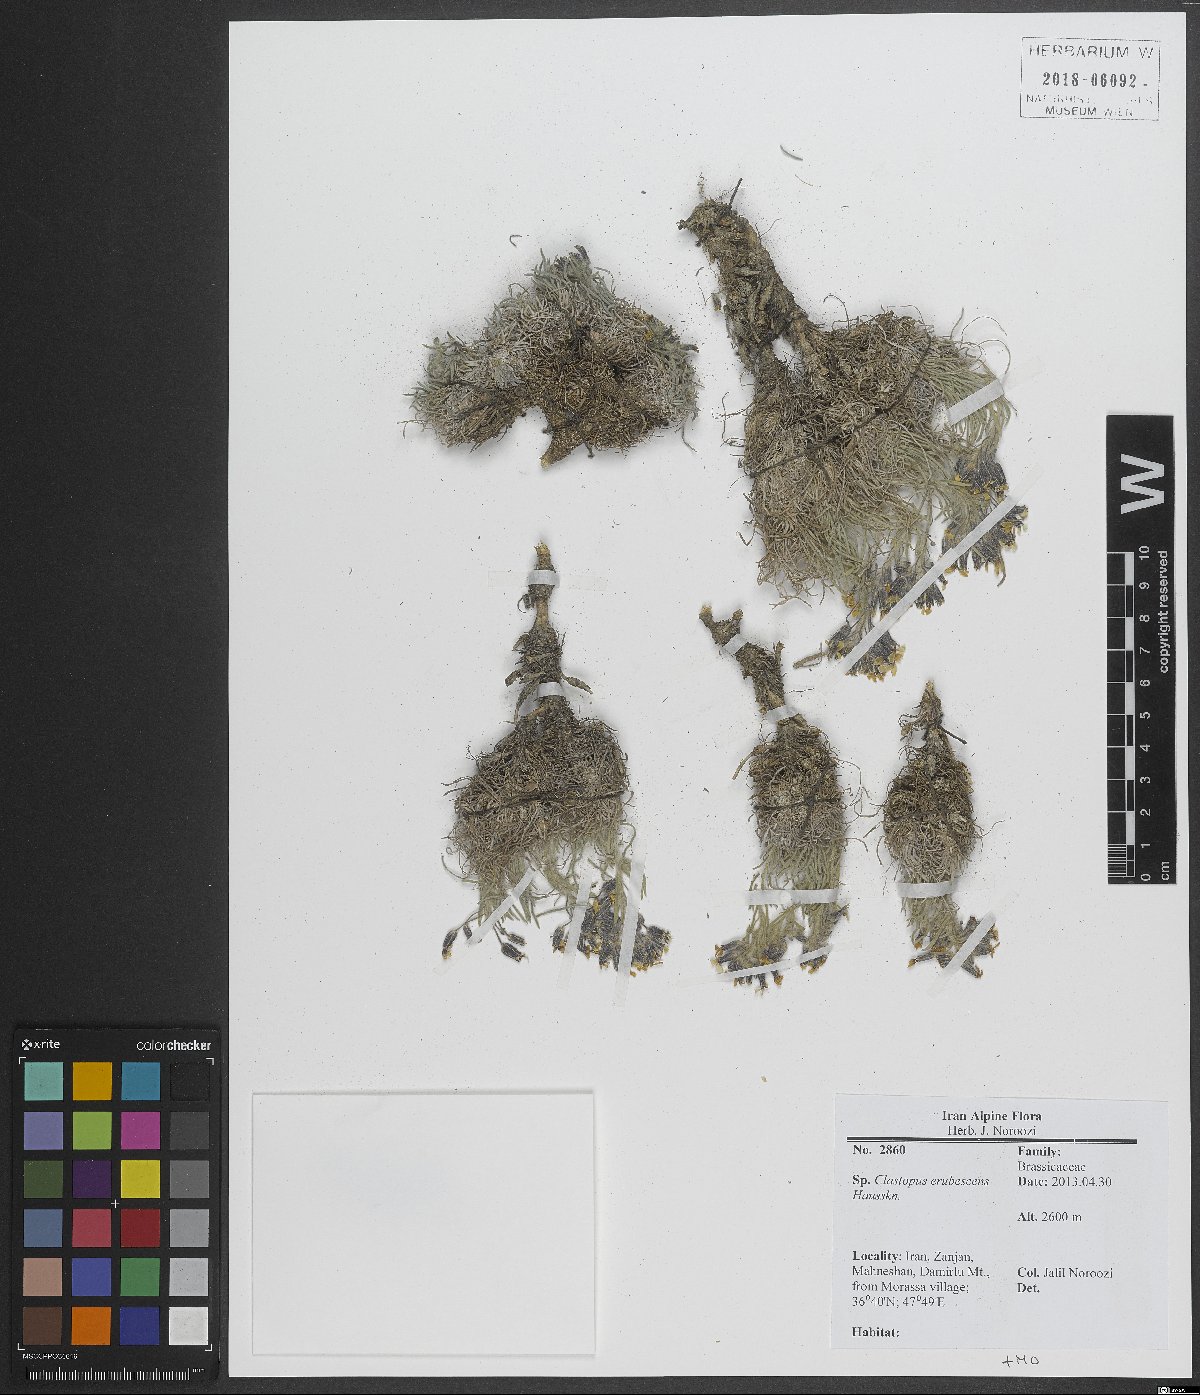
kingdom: Plantae
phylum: Tracheophyta
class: Magnoliopsida
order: Brassicales
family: Brassicaceae
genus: Clastopus
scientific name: Clastopus erubescens
